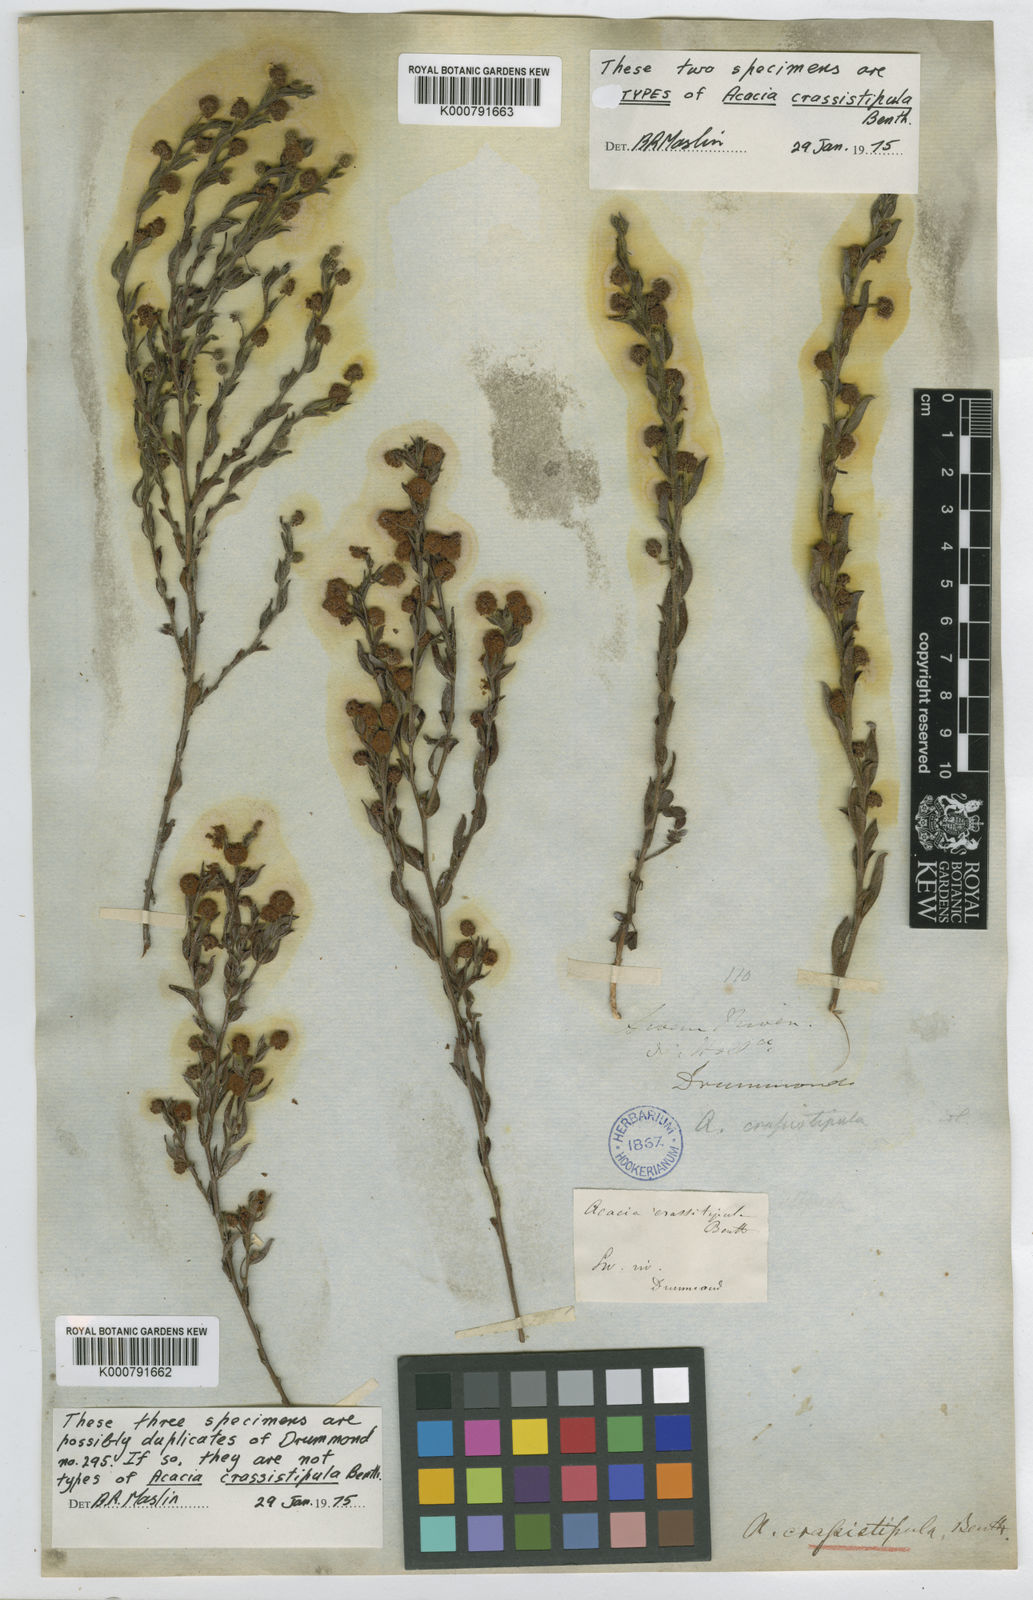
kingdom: Plantae
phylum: Tracheophyta
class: Magnoliopsida
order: Fabales
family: Fabaceae
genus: Acacia
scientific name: Acacia crassistipula
